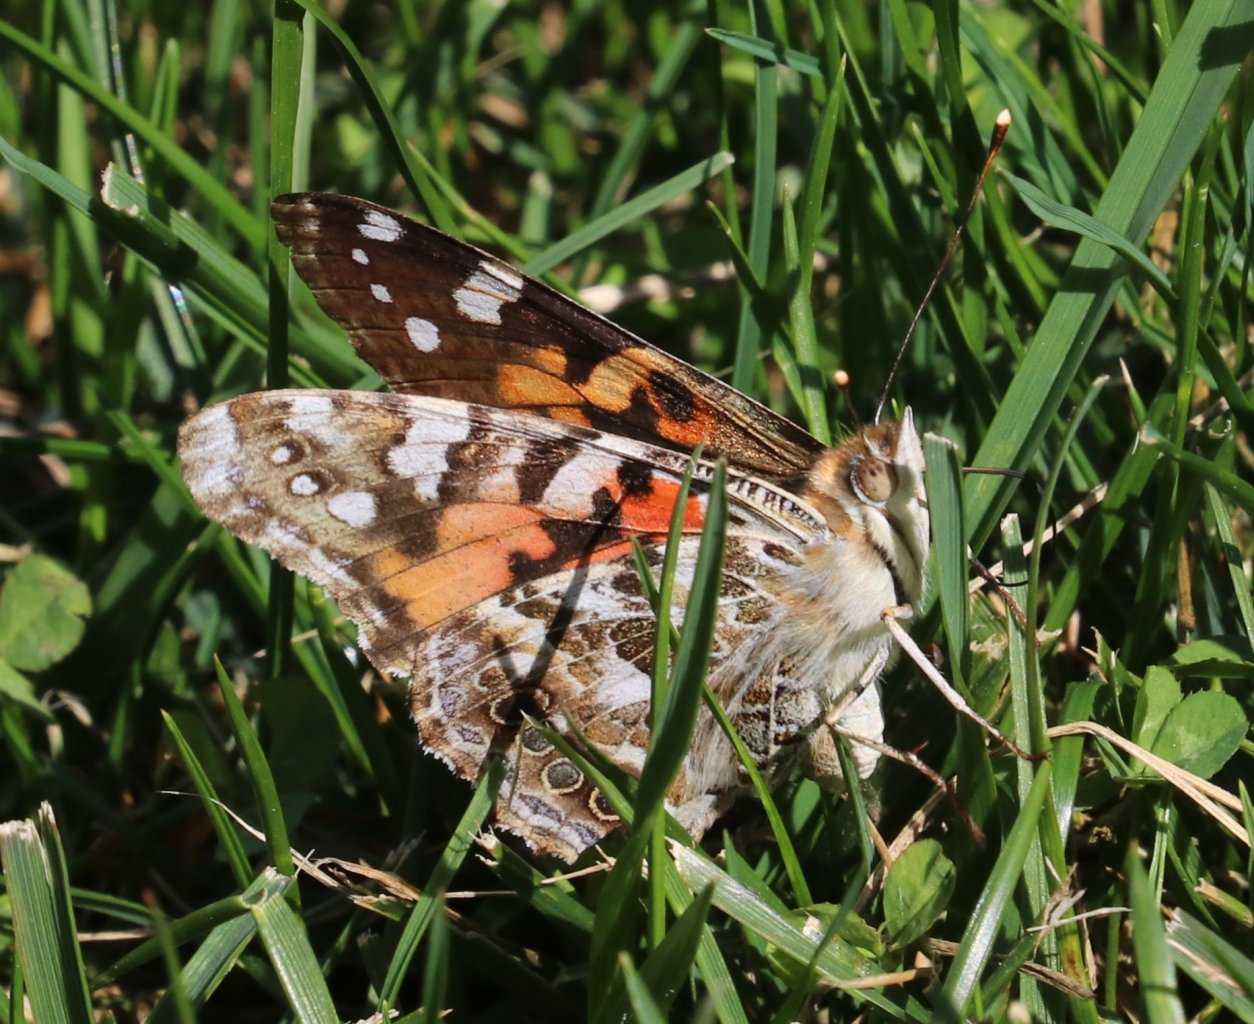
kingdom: Animalia
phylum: Arthropoda
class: Insecta
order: Lepidoptera
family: Nymphalidae
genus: Vanessa
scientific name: Vanessa cardui
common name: Painted Lady
